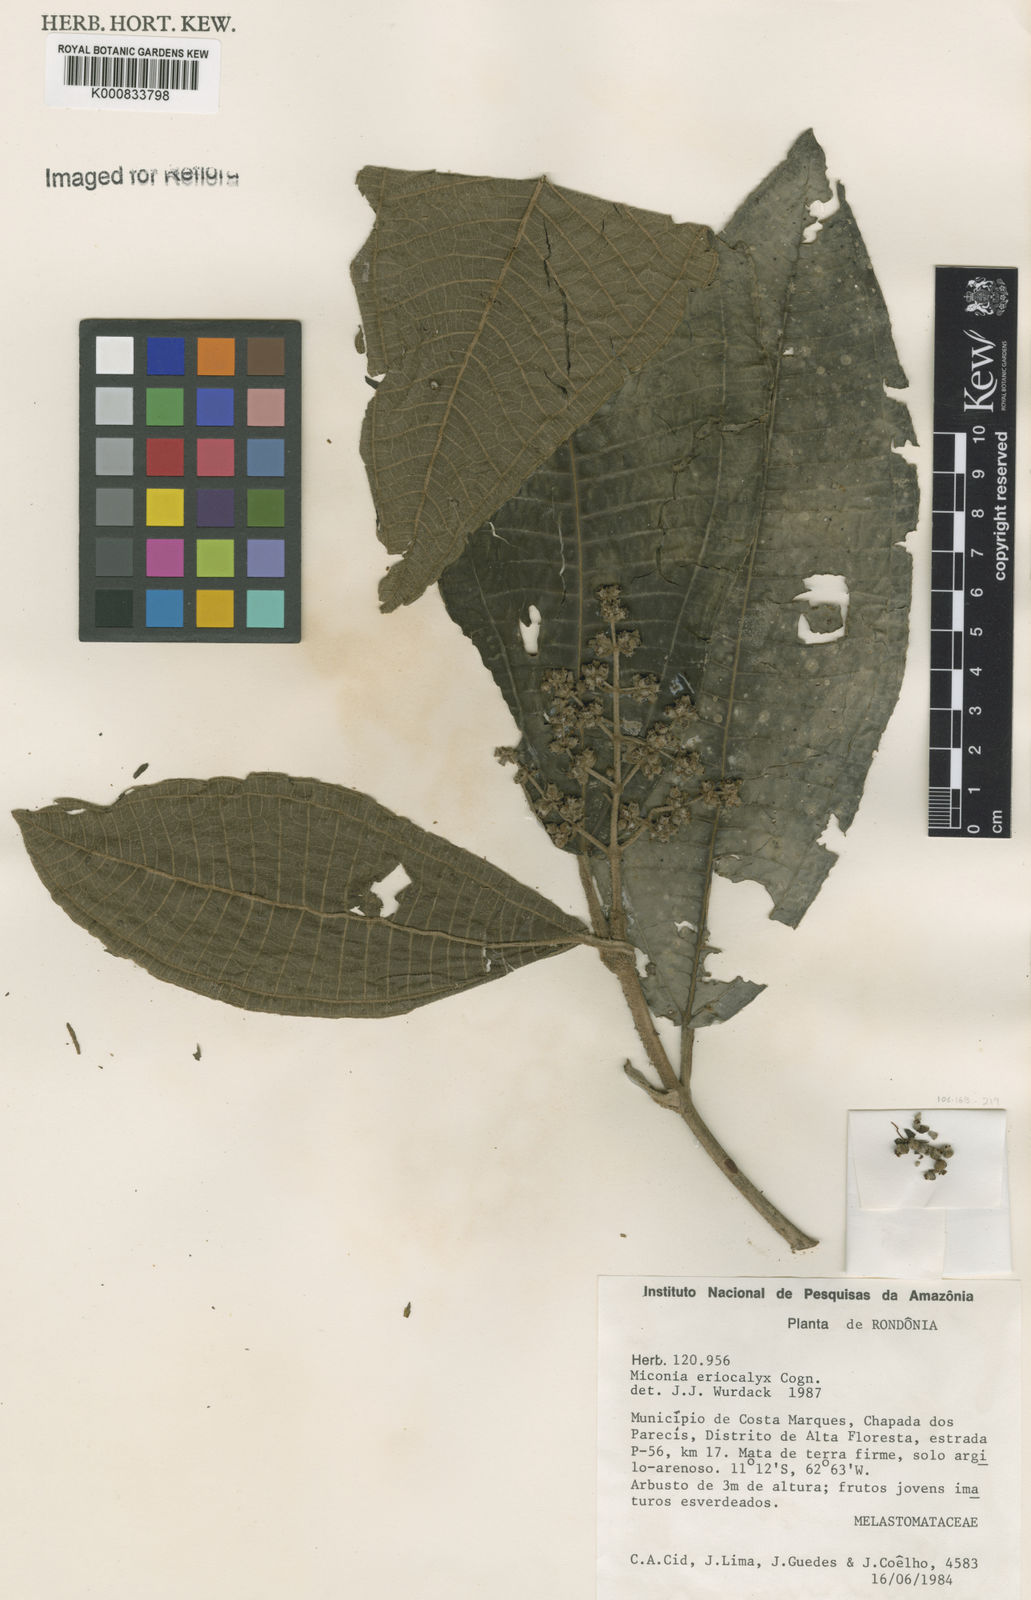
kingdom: Plantae
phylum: Tracheophyta
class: Magnoliopsida
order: Myrtales
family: Melastomataceae
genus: Miconia
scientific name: Miconia eriocalyx
